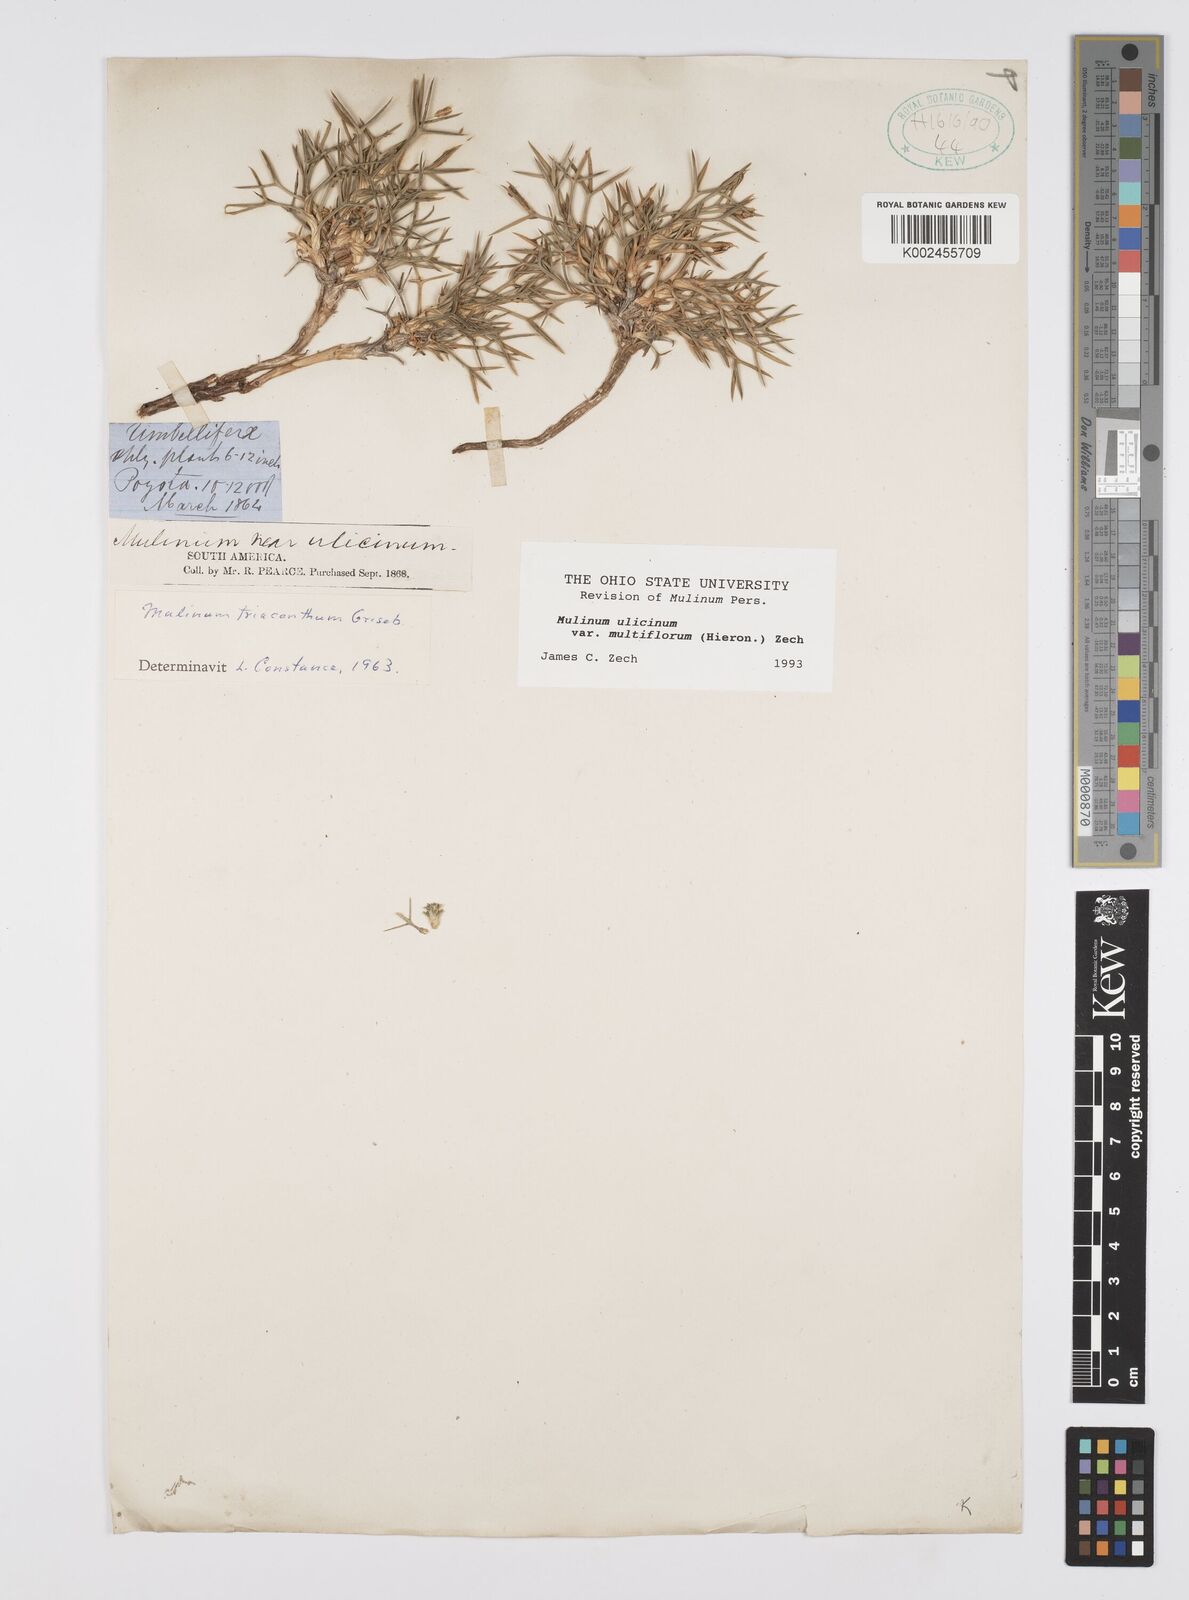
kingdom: Plantae
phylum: Tracheophyta
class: Magnoliopsida
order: Apiales
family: Apiaceae
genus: Azorella
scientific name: Azorella ulicina
